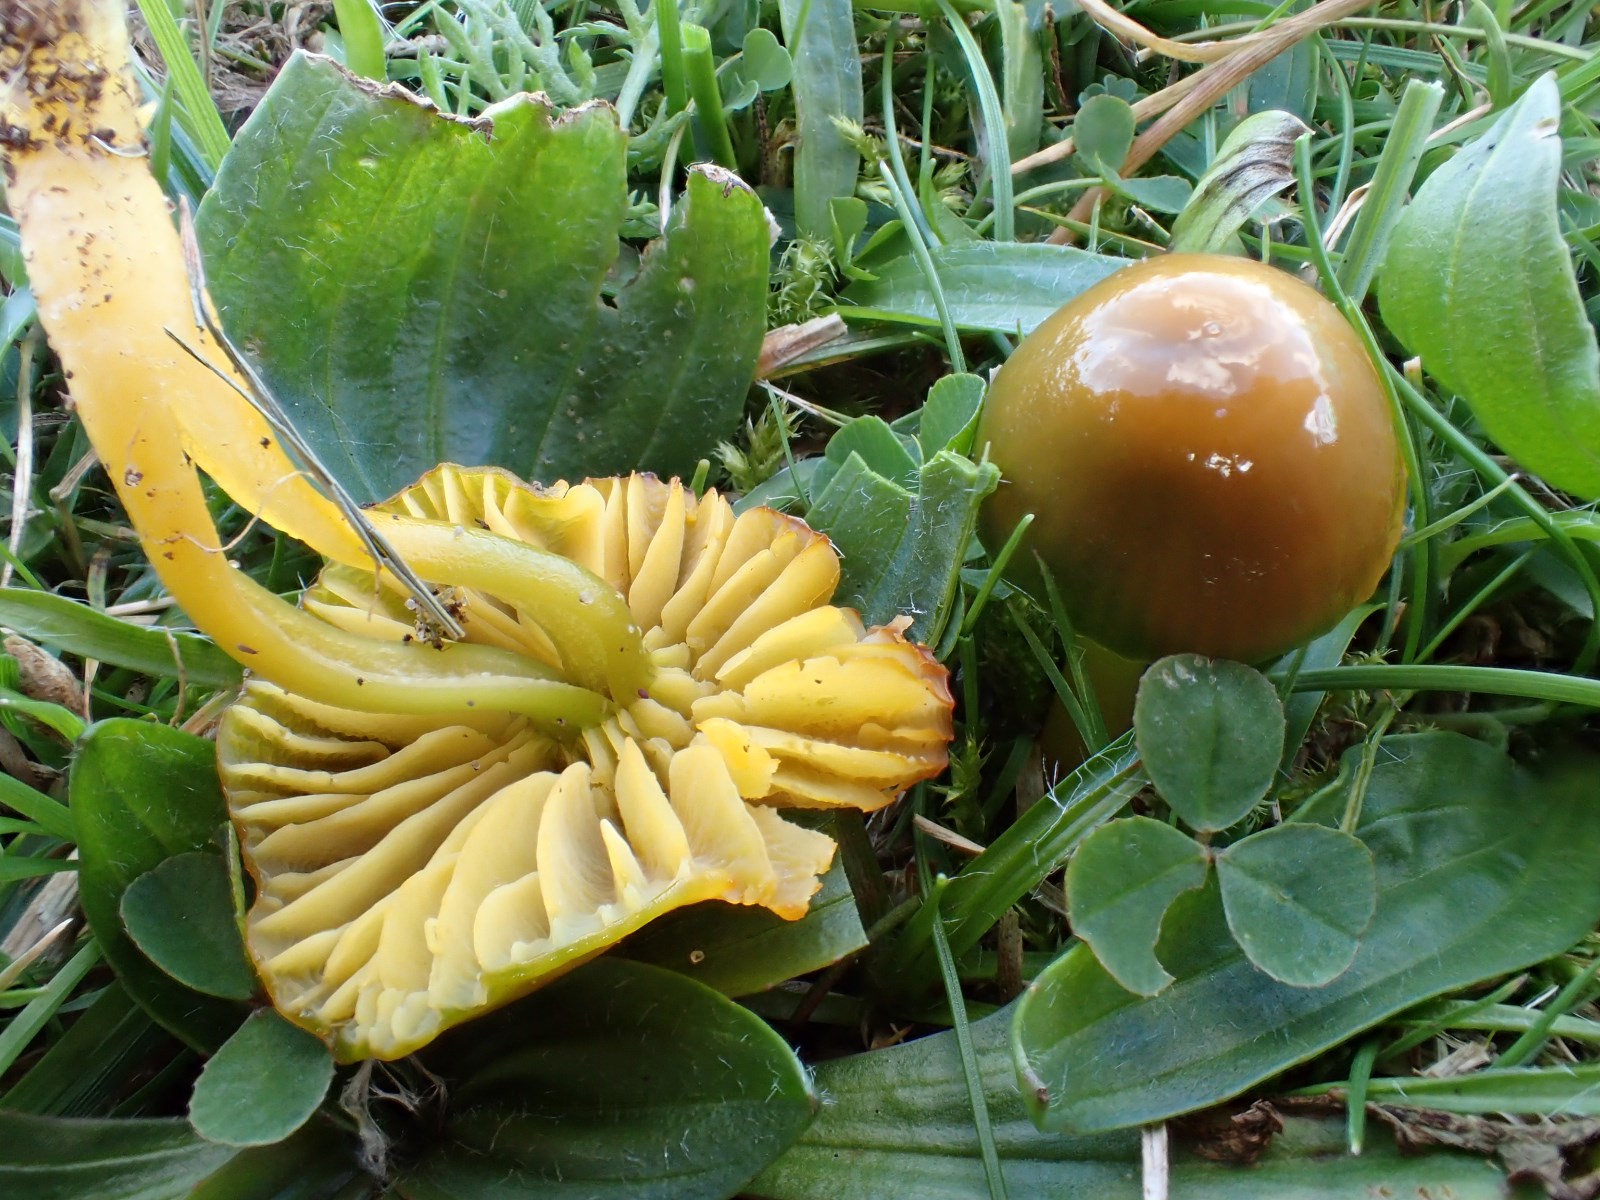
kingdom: Fungi
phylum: Basidiomycota
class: Agaricomycetes
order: Agaricales
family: Hygrophoraceae
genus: Gliophorus
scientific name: Gliophorus psittacinus
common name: papegøje-vokshat
